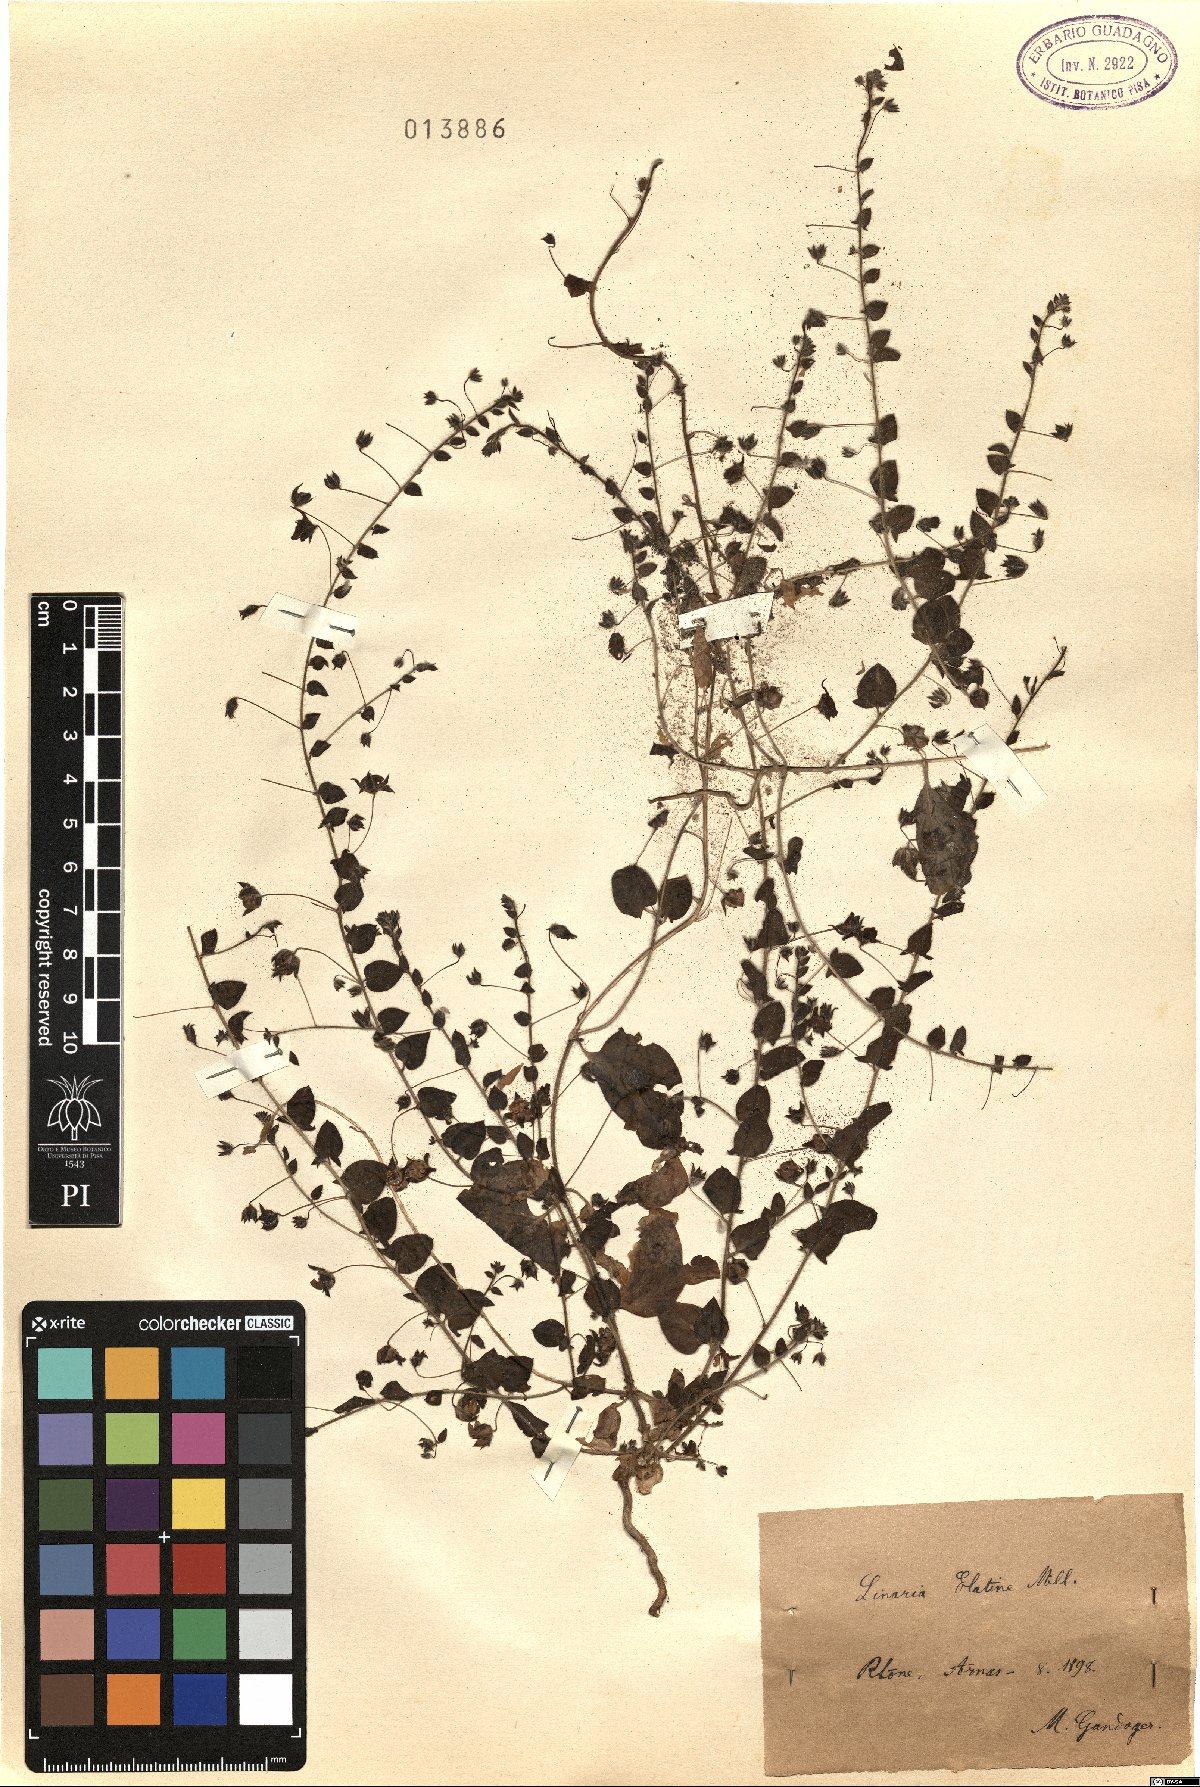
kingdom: Plantae
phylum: Tracheophyta
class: Magnoliopsida
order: Lamiales
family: Plantaginaceae
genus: Kickxia
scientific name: Kickxia elatine
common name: Sharp-leaved fluellen
